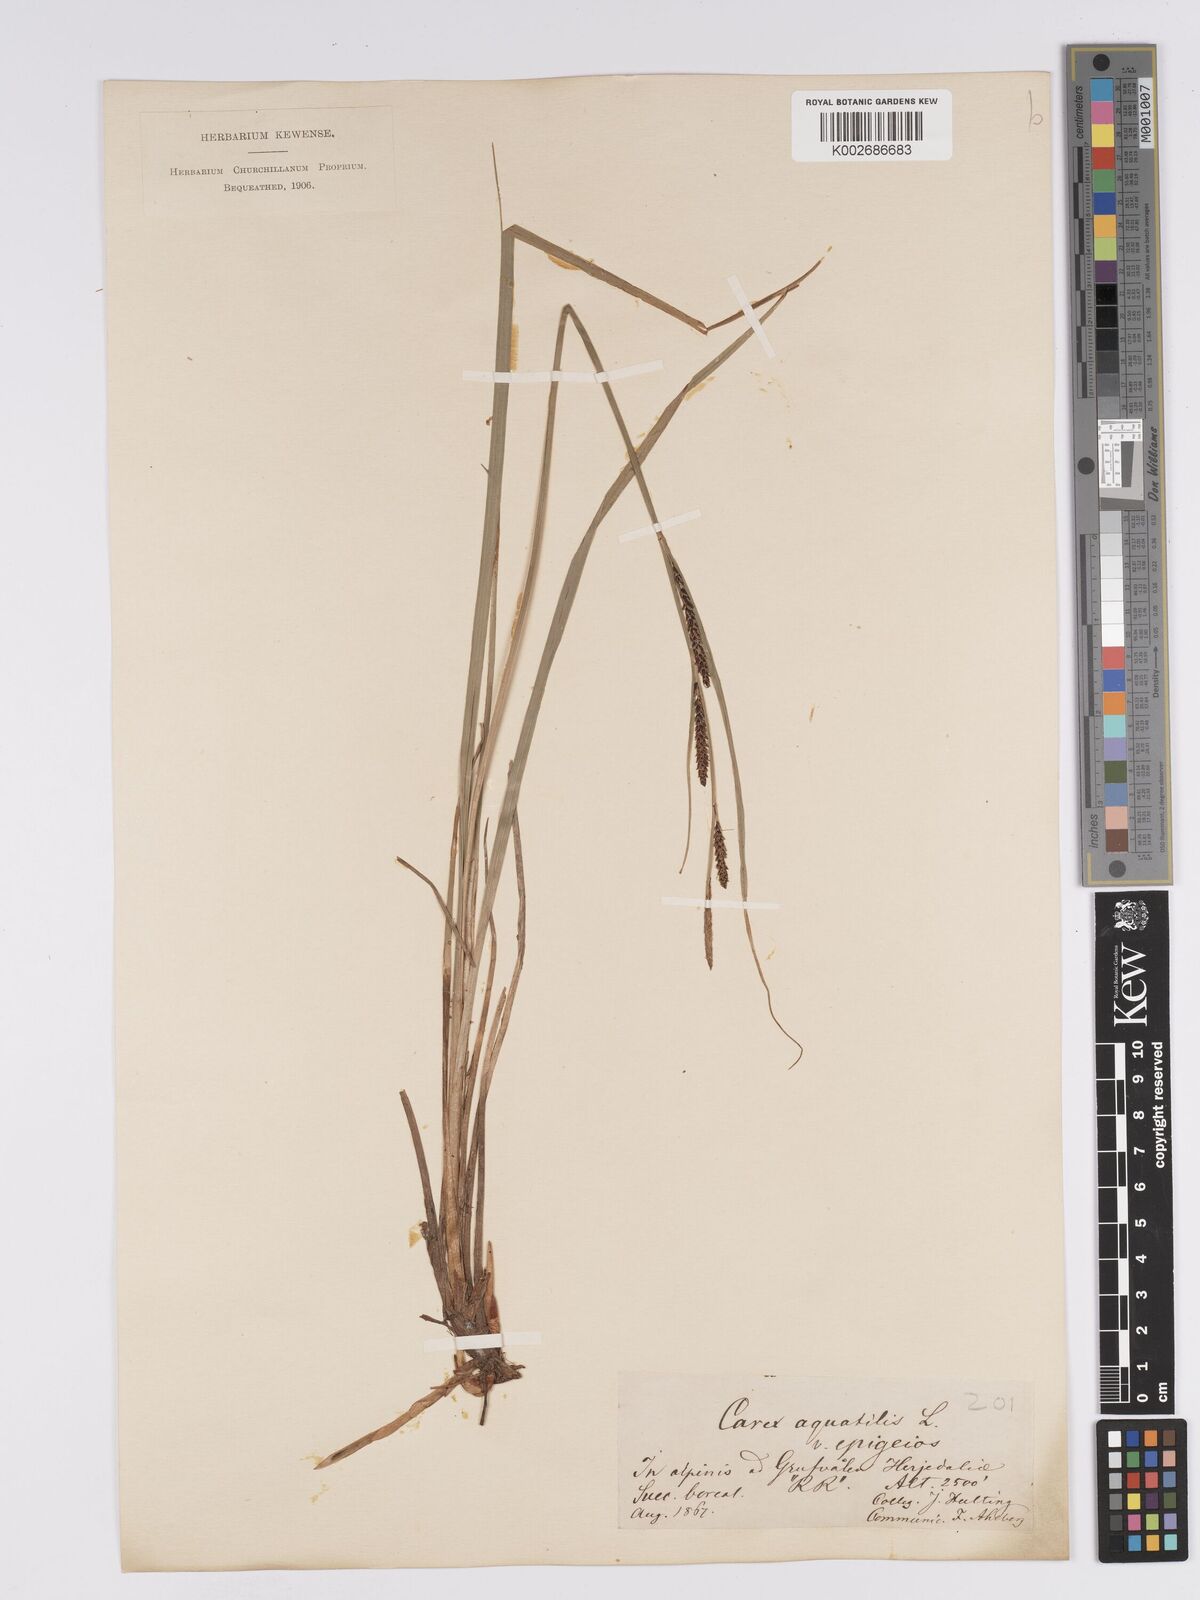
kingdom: Plantae
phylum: Tracheophyta
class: Liliopsida
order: Poales
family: Cyperaceae
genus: Carex
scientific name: Carex aquatilis
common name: Water sedge
